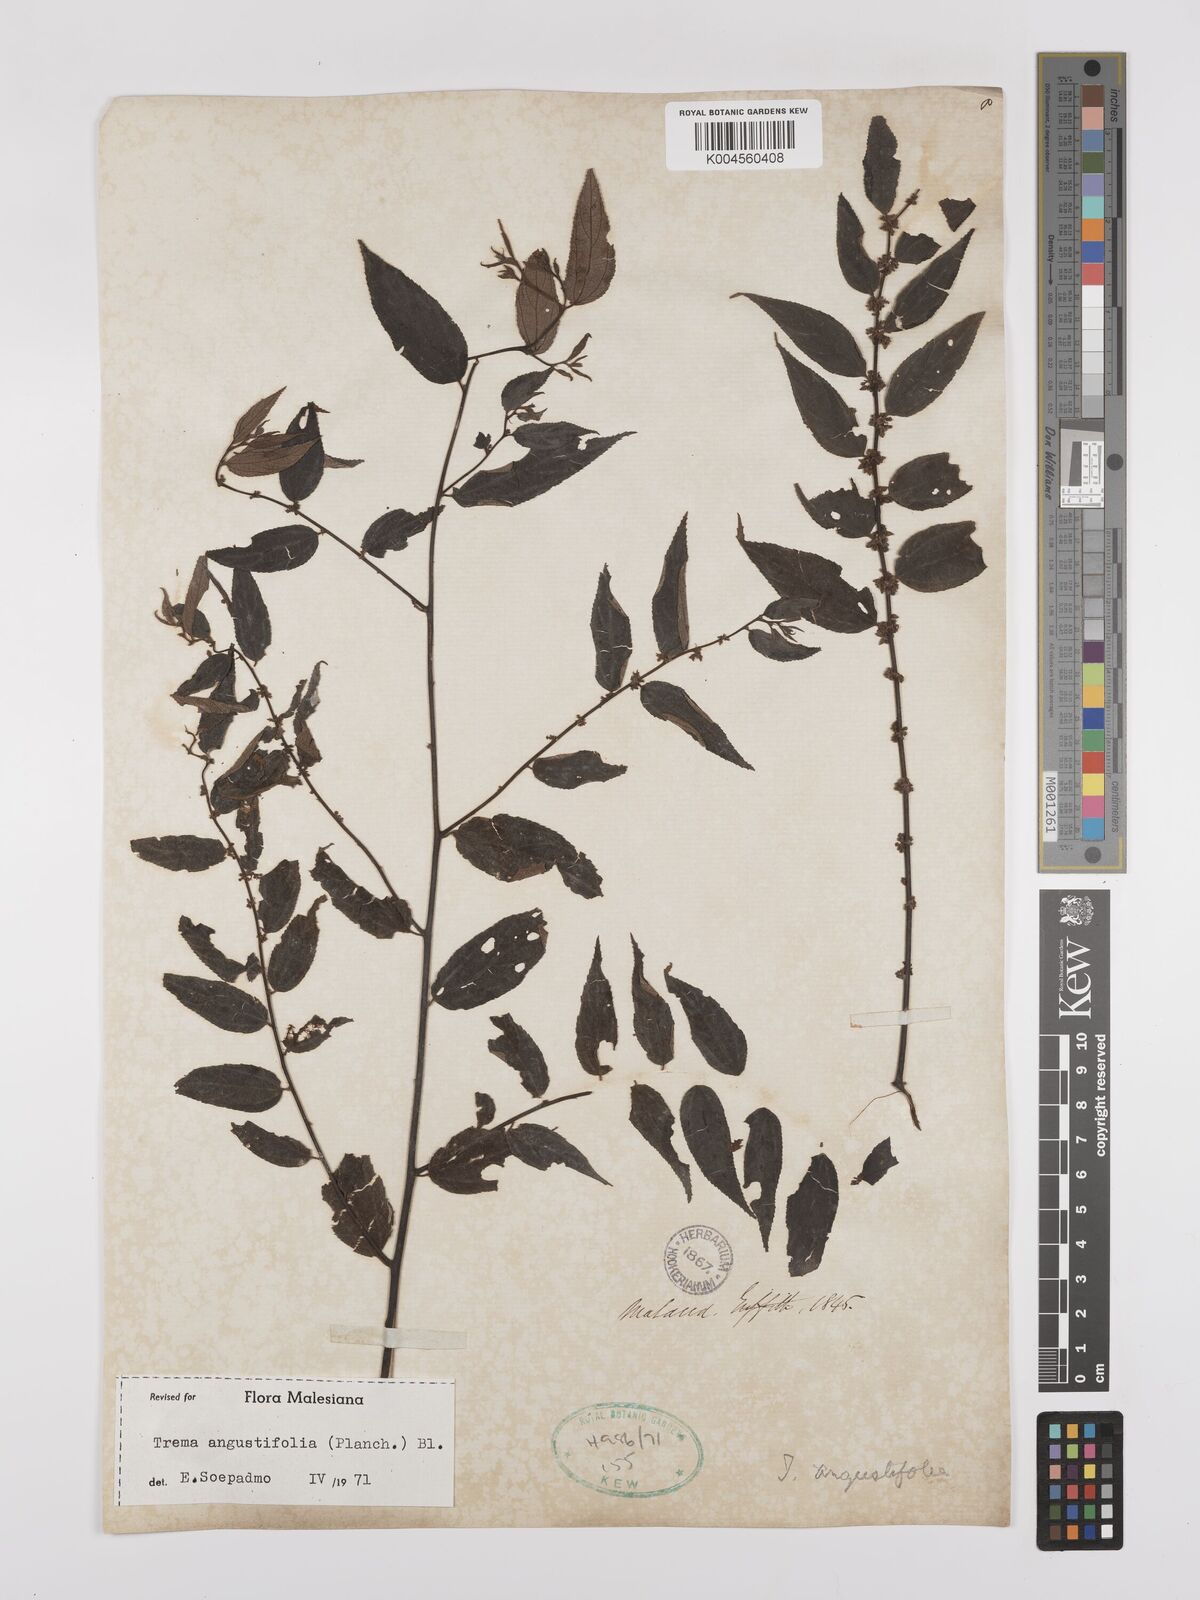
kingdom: Plantae
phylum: Tracheophyta
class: Magnoliopsida
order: Rosales
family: Cannabaceae
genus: Trema
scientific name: Trema angustifolium
